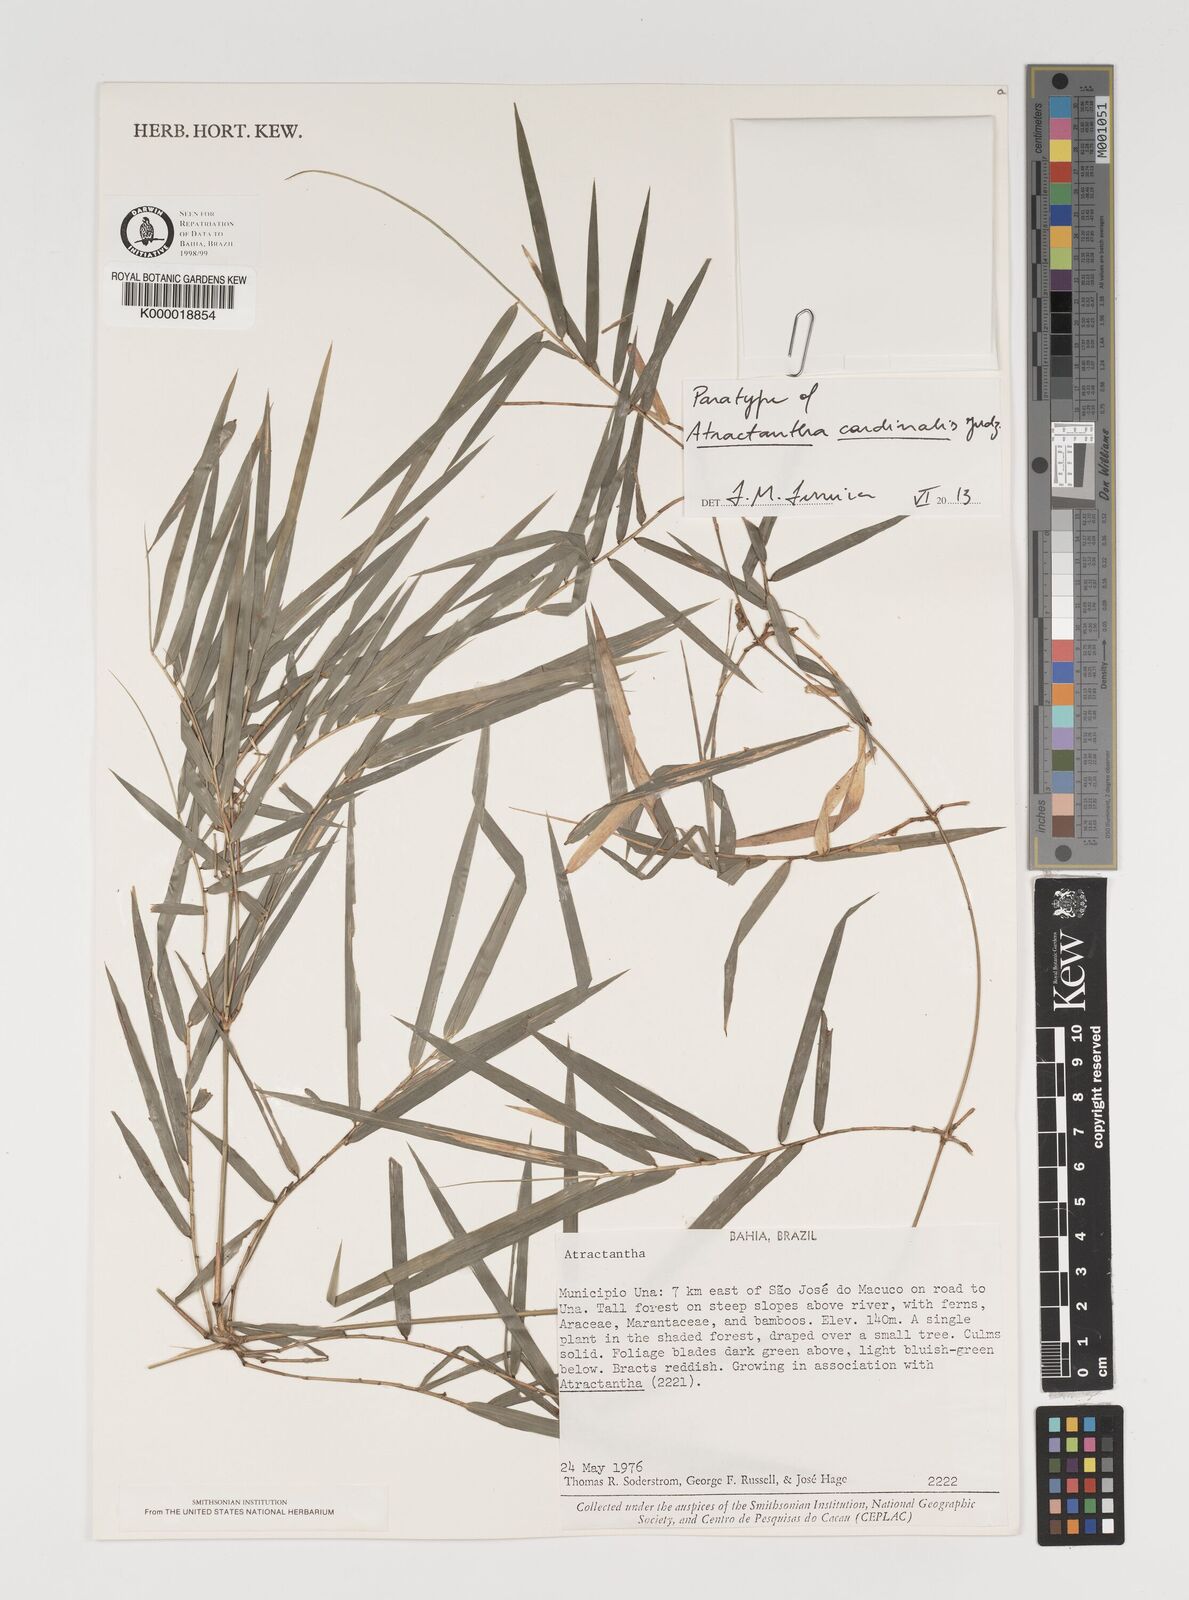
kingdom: Plantae
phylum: Tracheophyta
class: Liliopsida
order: Poales
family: Poaceae
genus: Atractantha
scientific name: Atractantha cardinalis
